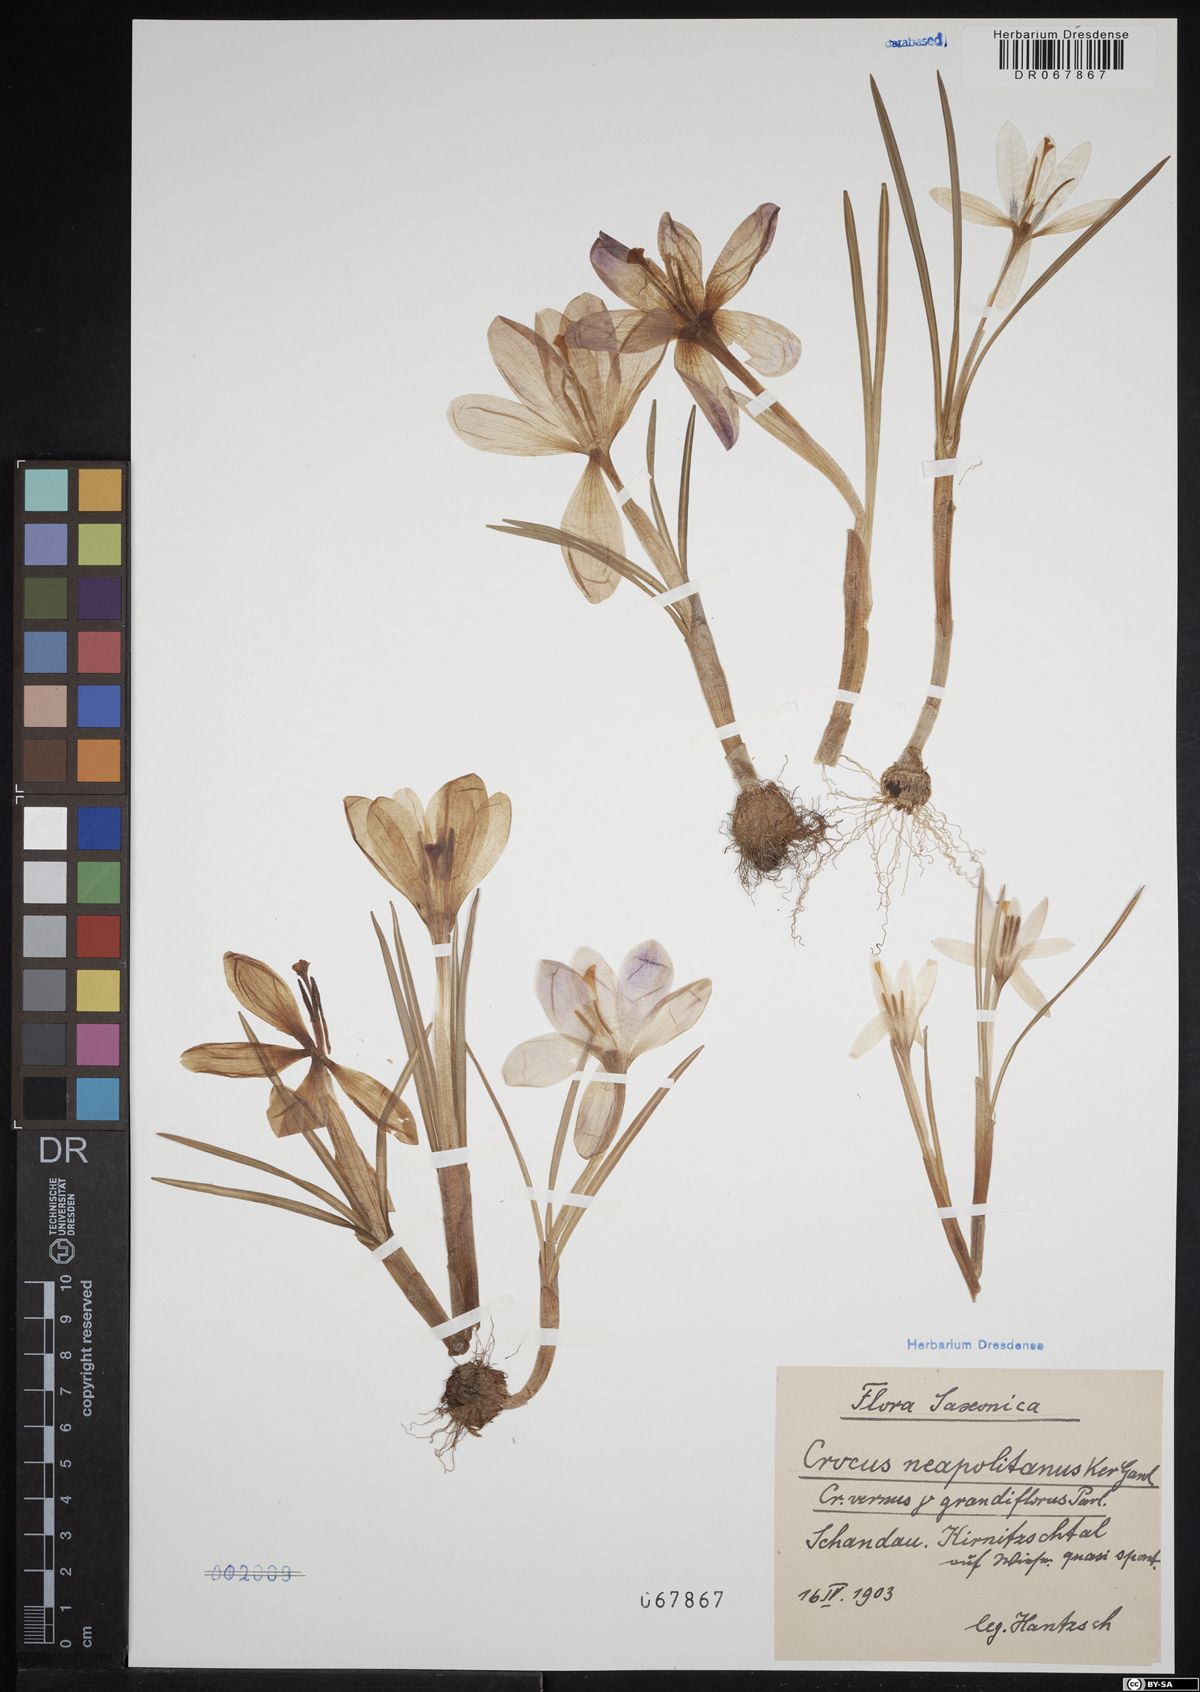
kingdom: Plantae
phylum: Tracheophyta
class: Liliopsida
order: Asparagales
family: Iridaceae
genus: Crocus
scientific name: Crocus neapolitanus
